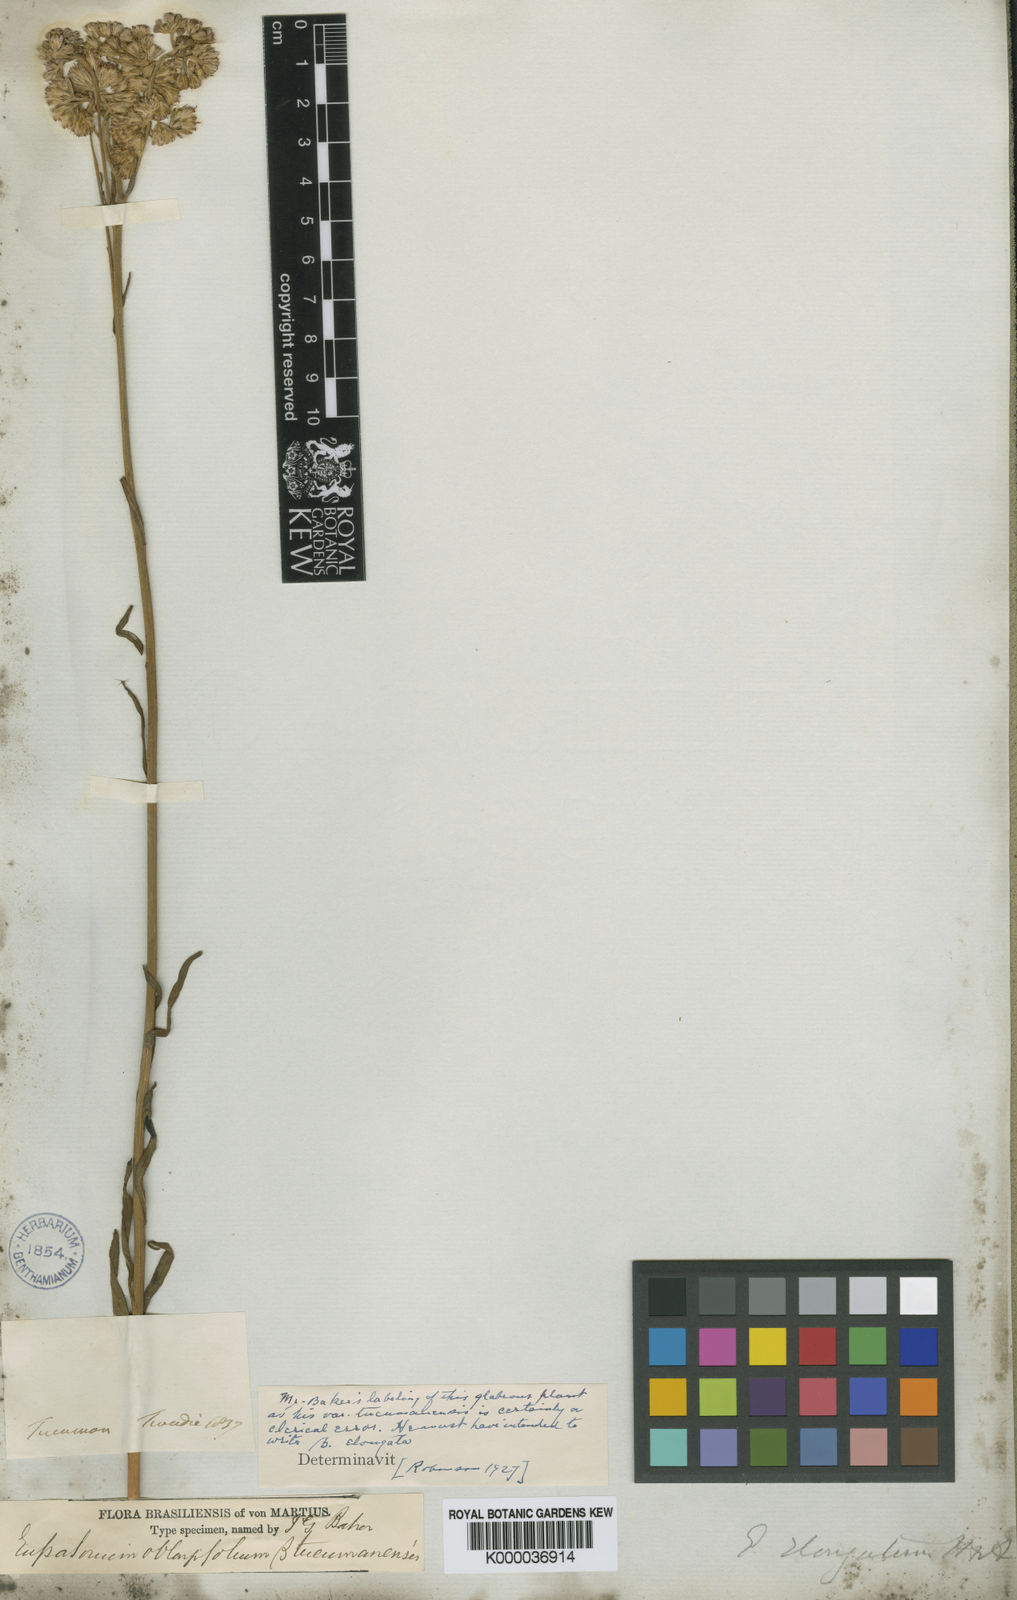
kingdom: Plantae
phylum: Tracheophyta
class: Magnoliopsida
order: Asterales
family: Asteraceae
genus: Stomatanthes
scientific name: Stomatanthes oblongifolius
